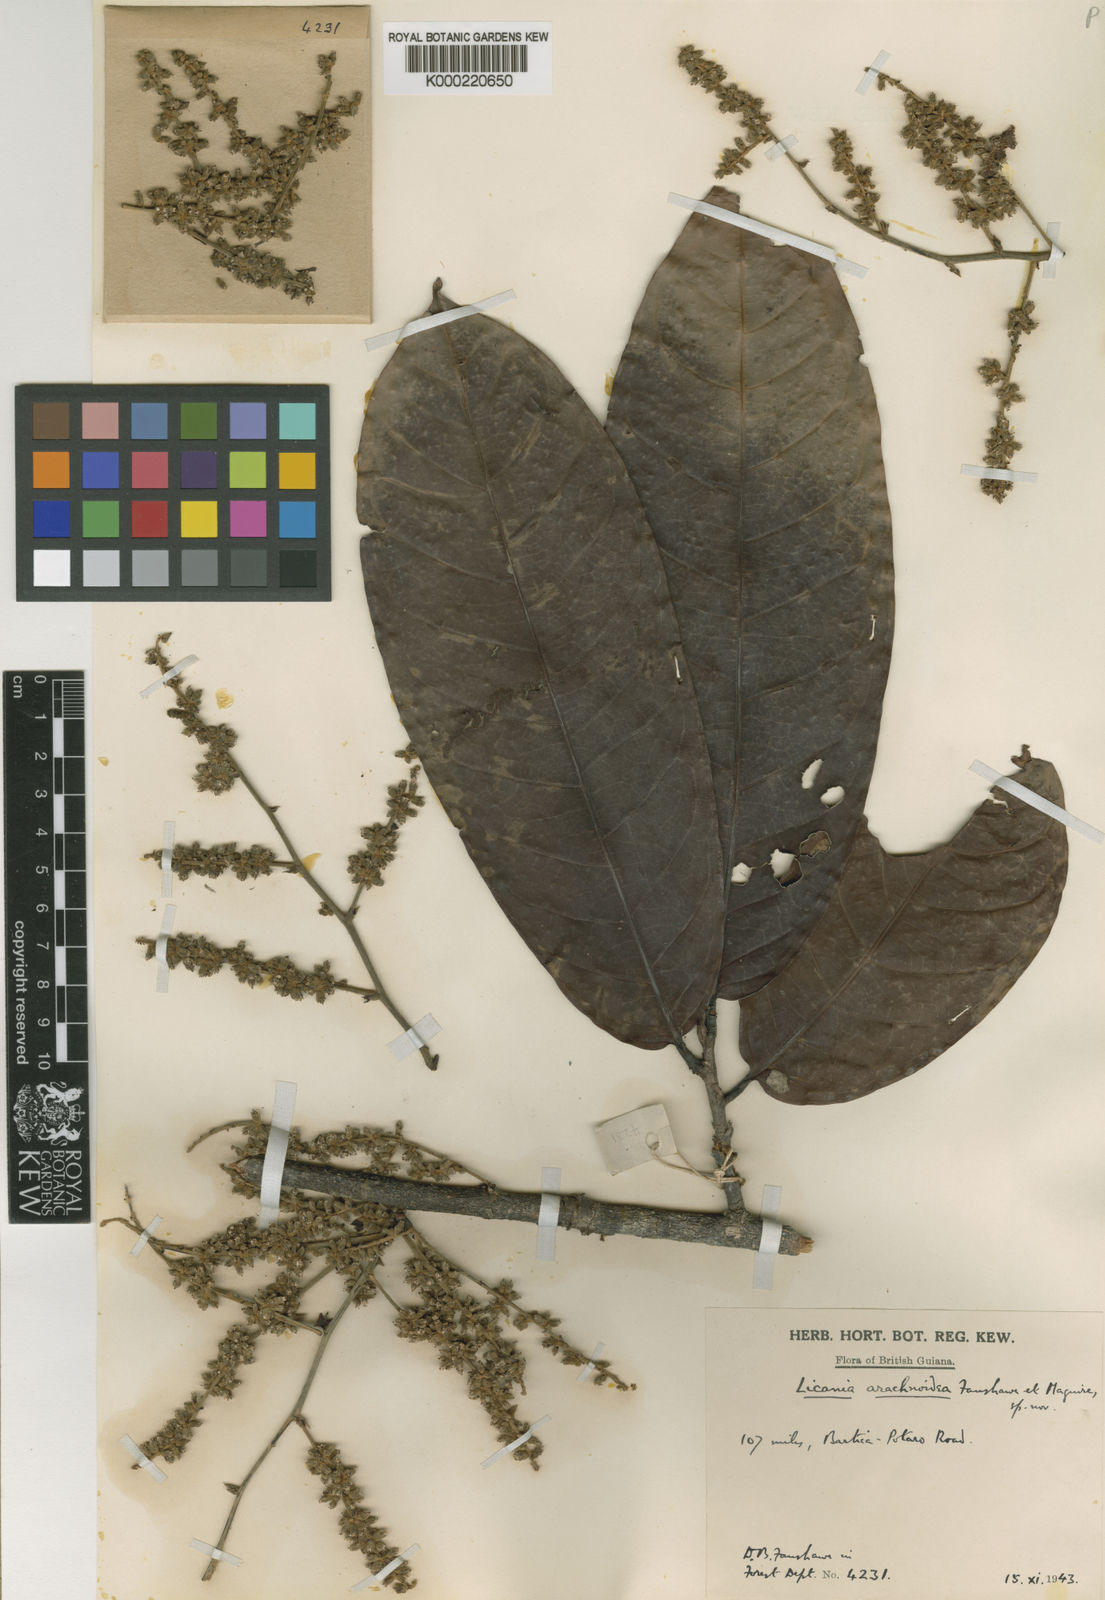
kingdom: Plantae
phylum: Tracheophyta
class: Magnoliopsida
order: Malpighiales
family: Chrysobalanaceae
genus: Hymenopus
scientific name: Hymenopus arachnoideus
